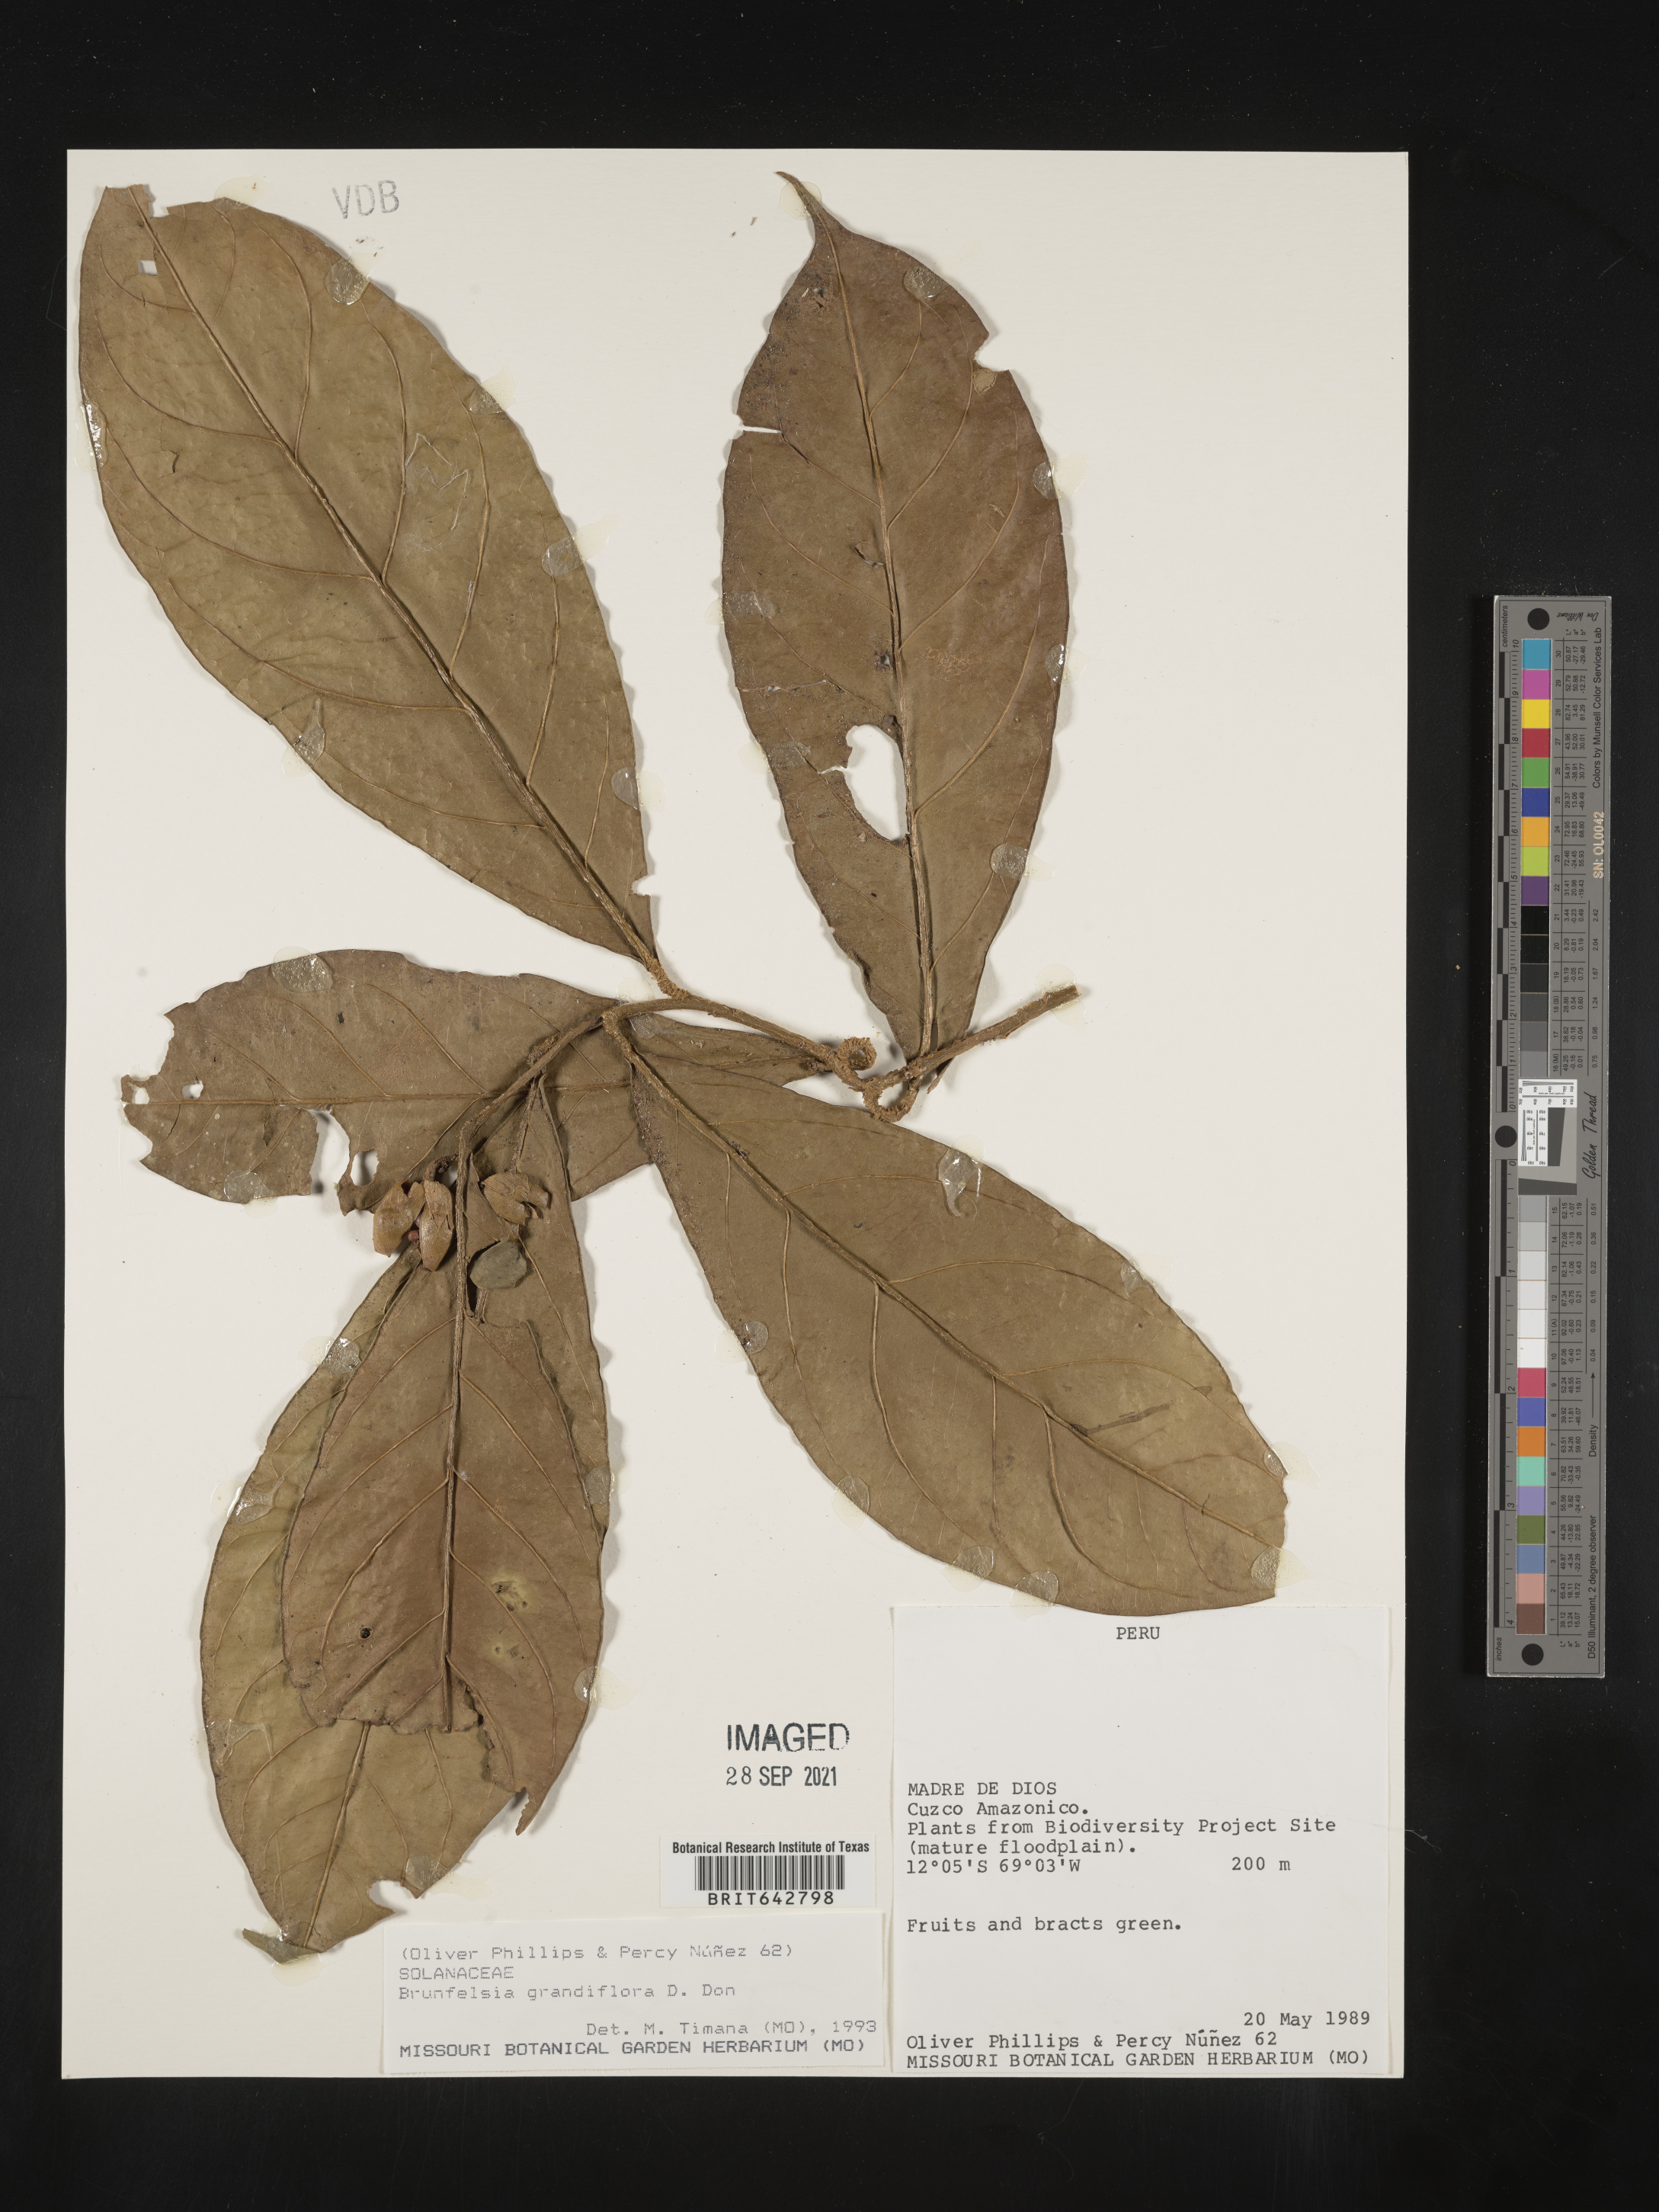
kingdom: Plantae
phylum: Tracheophyta
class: Magnoliopsida
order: Solanales
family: Solanaceae
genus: Brunfelsia
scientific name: Brunfelsia
